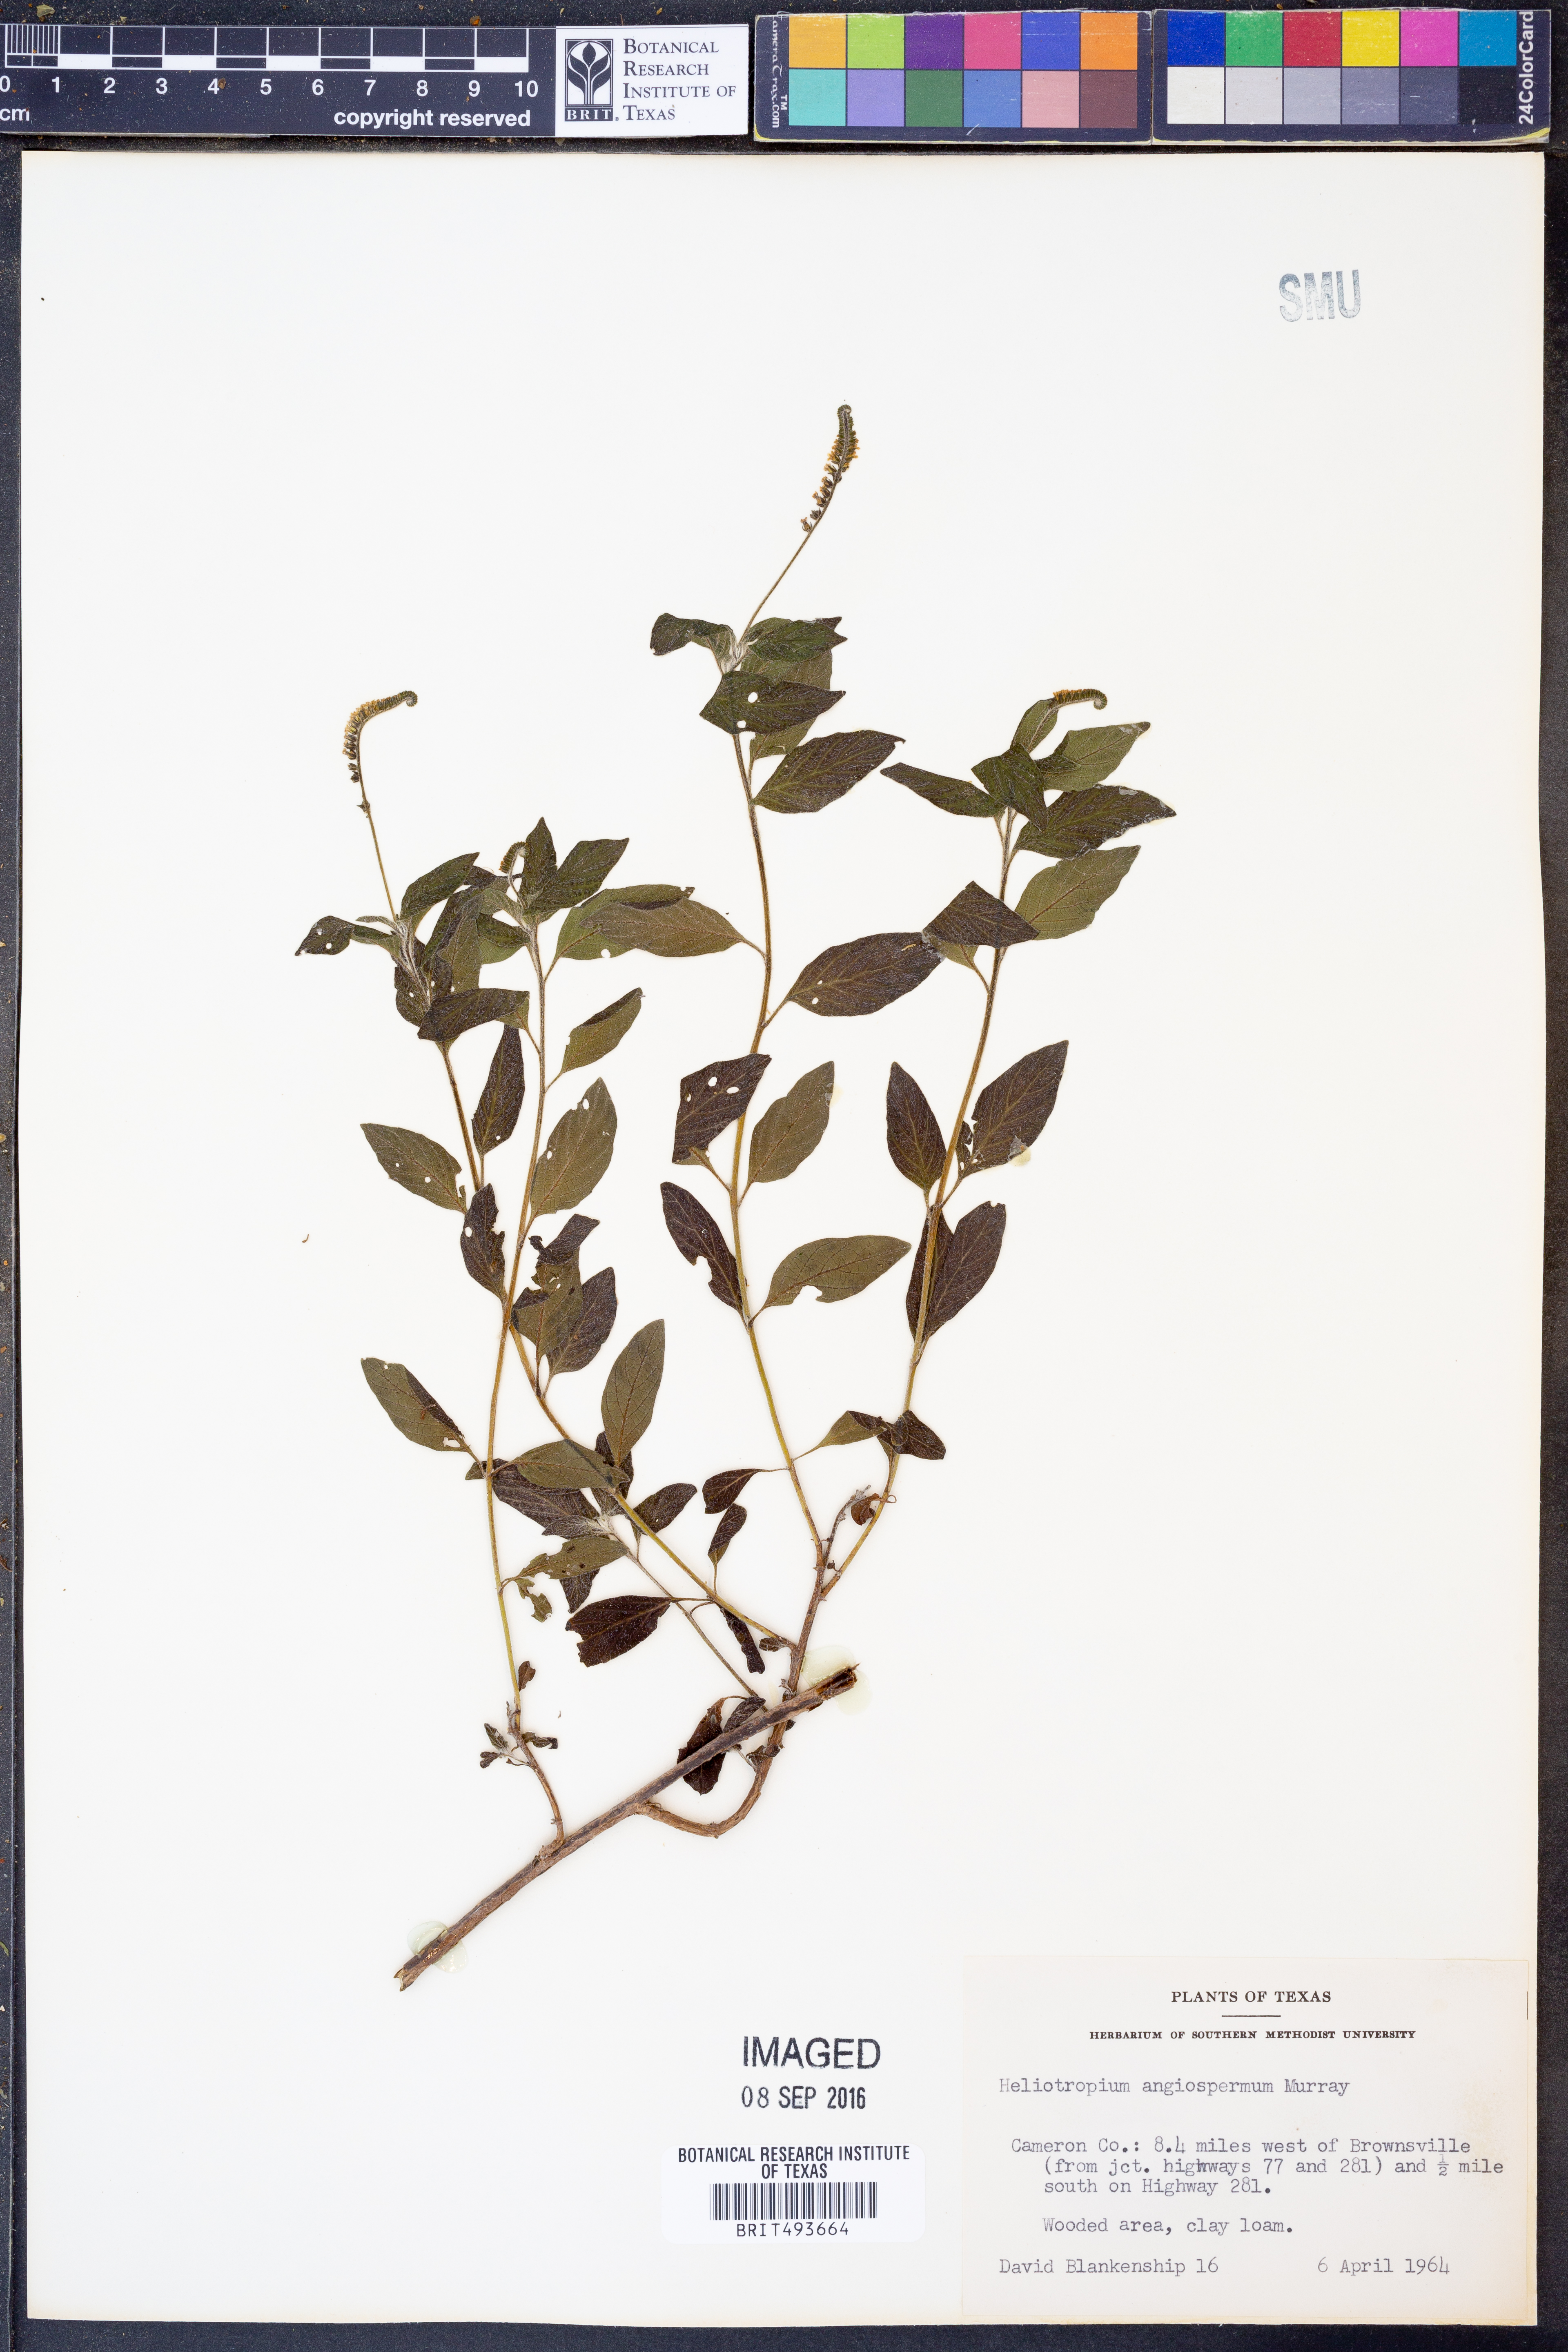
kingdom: Plantae
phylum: Tracheophyta
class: Magnoliopsida
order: Boraginales
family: Heliotropiaceae
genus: Heliotropium
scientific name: Heliotropium angiospermum
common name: Eye bright
